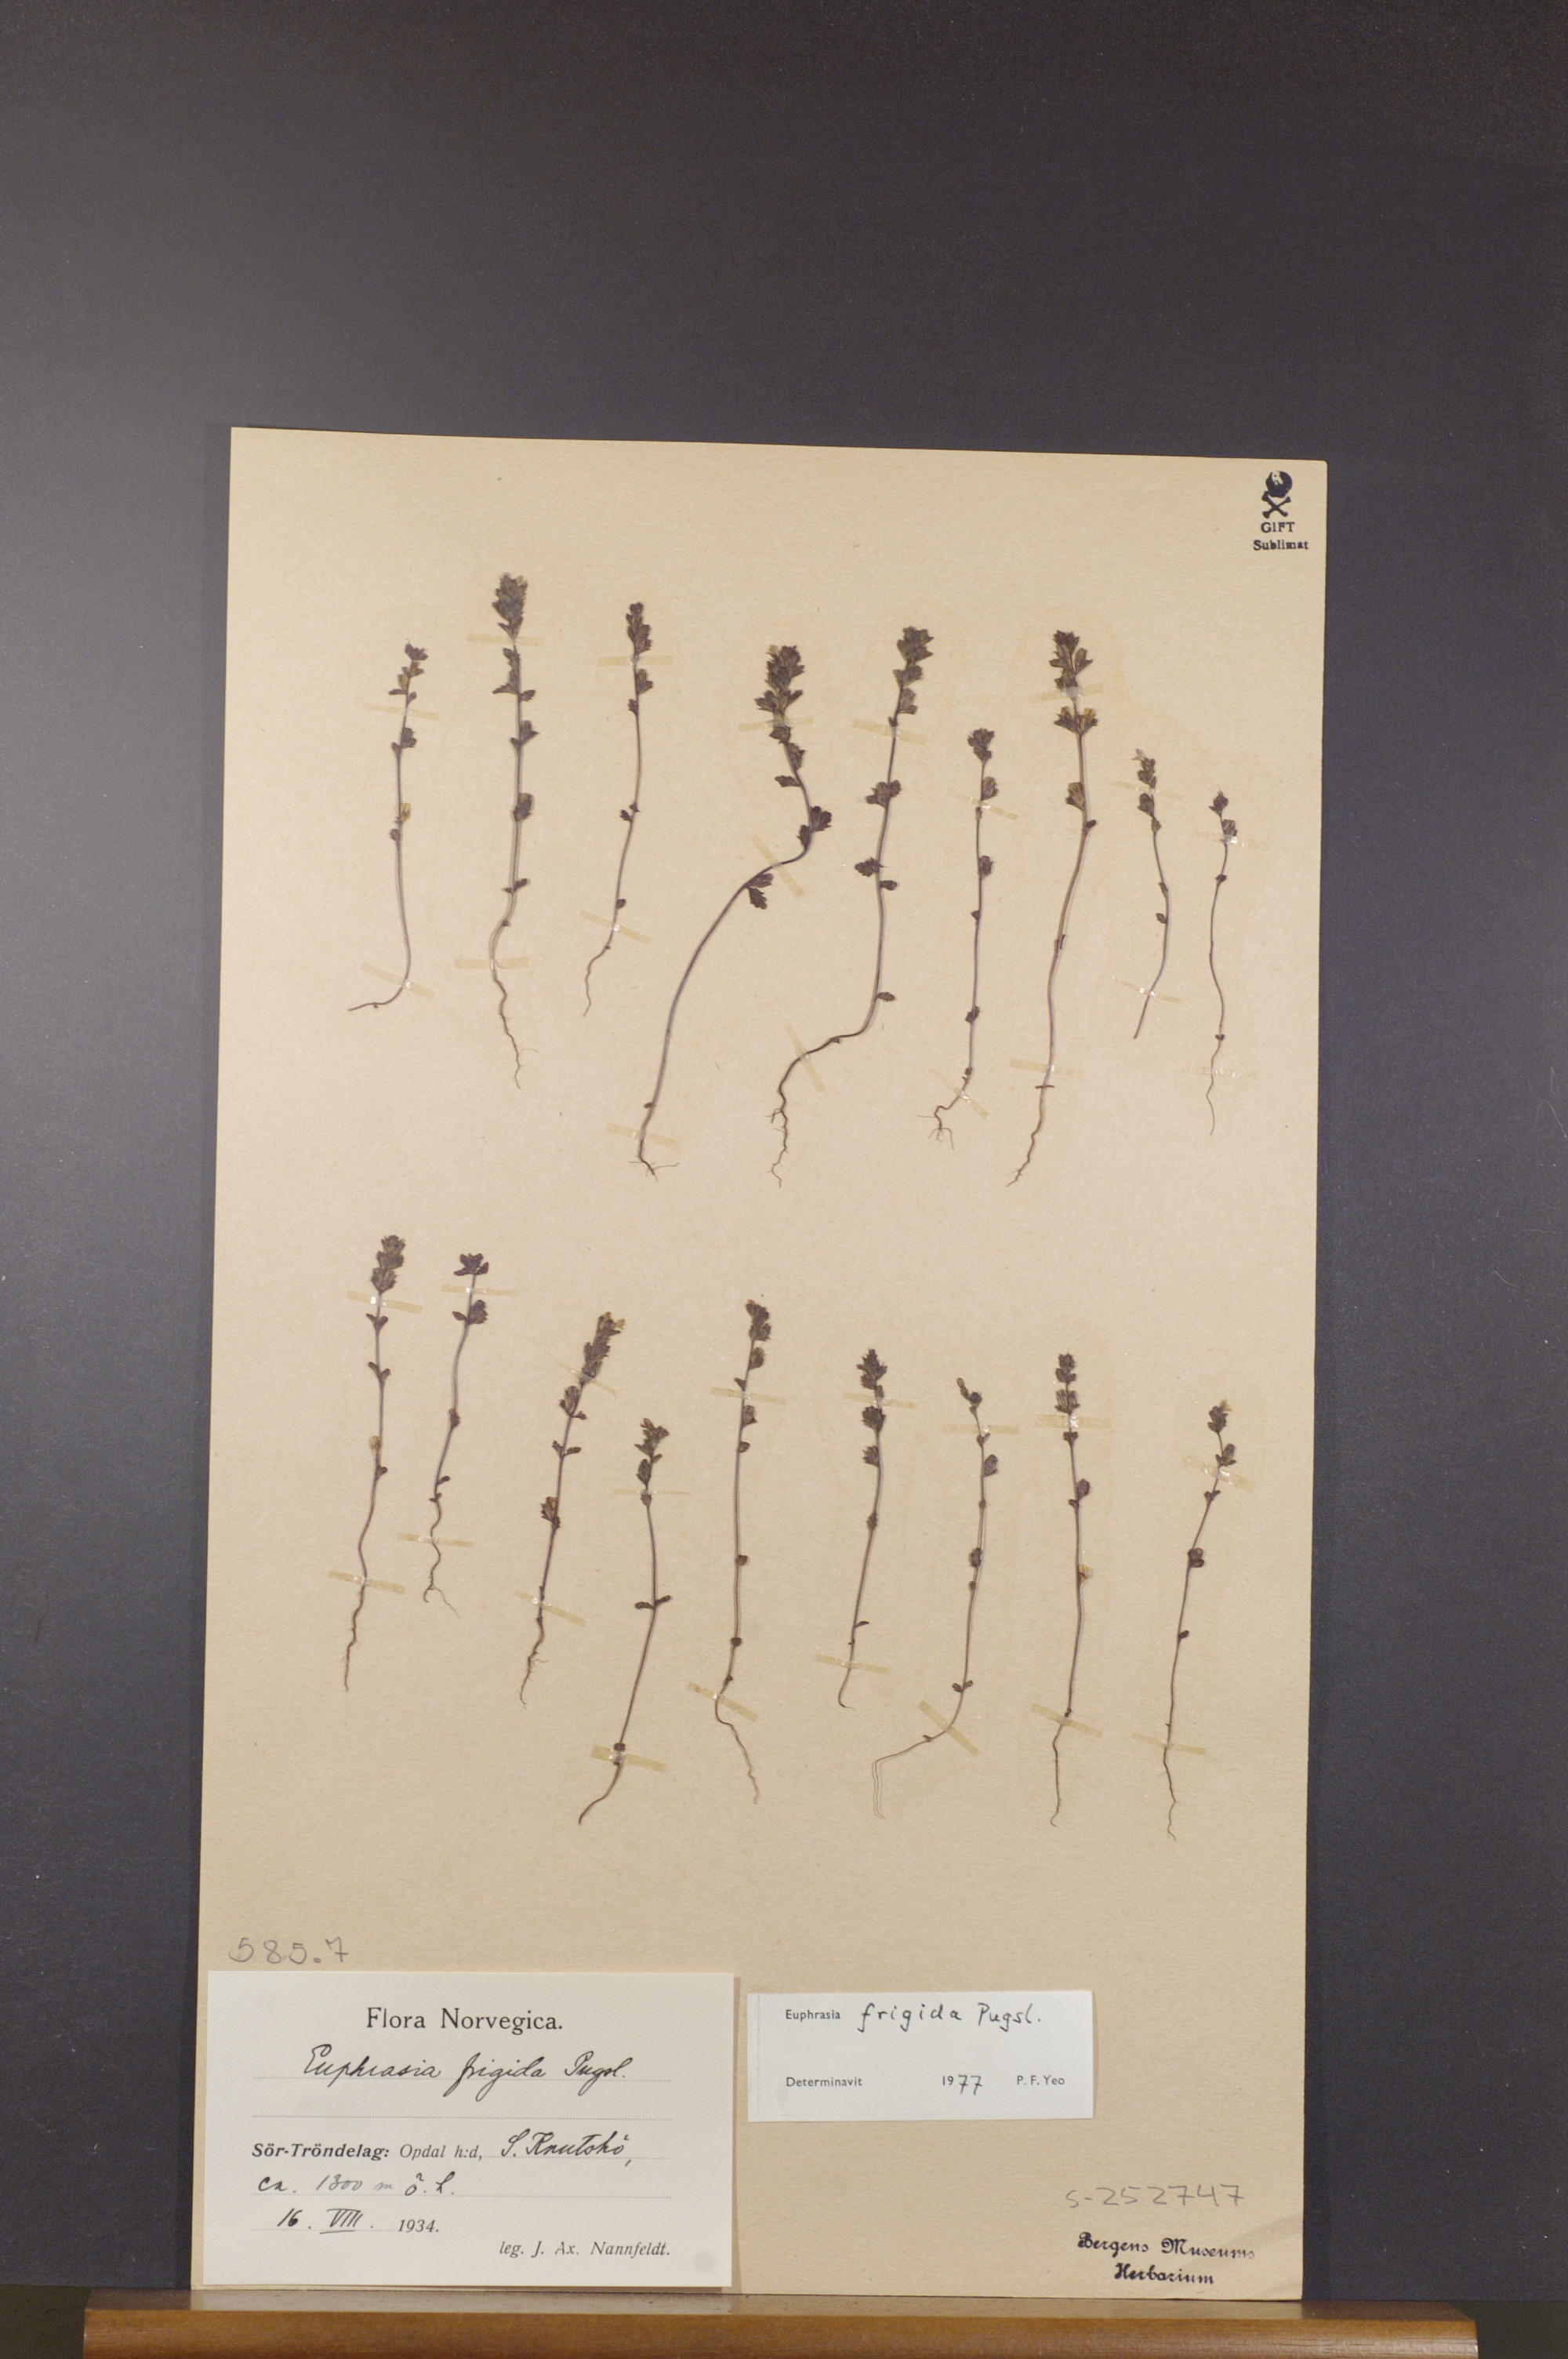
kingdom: Plantae
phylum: Tracheophyta
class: Magnoliopsida
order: Lamiales
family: Orobanchaceae
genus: Euphrasia
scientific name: Euphrasia frigida
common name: An eyebright
